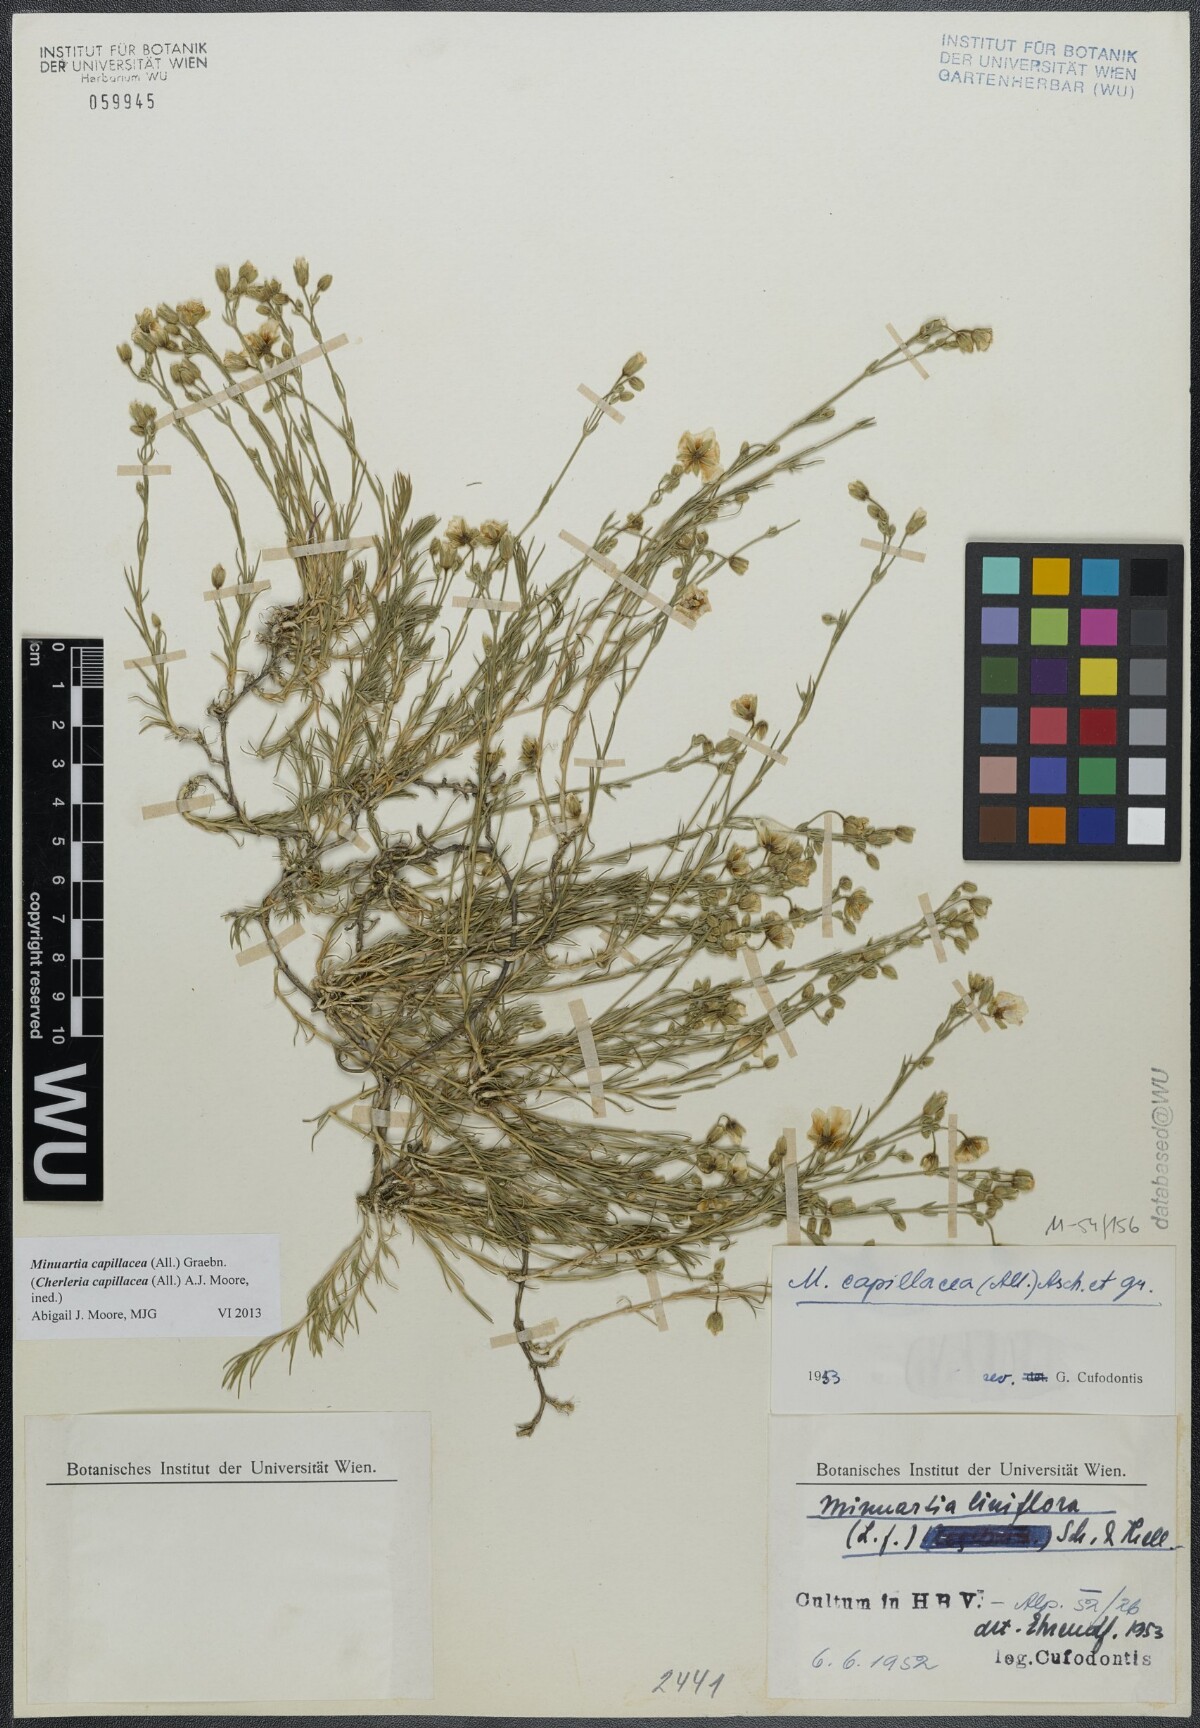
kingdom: Plantae
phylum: Tracheophyta
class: Magnoliopsida
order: Caryophyllales
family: Caryophyllaceae
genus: Cherleria
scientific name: Cherleria capillacea
